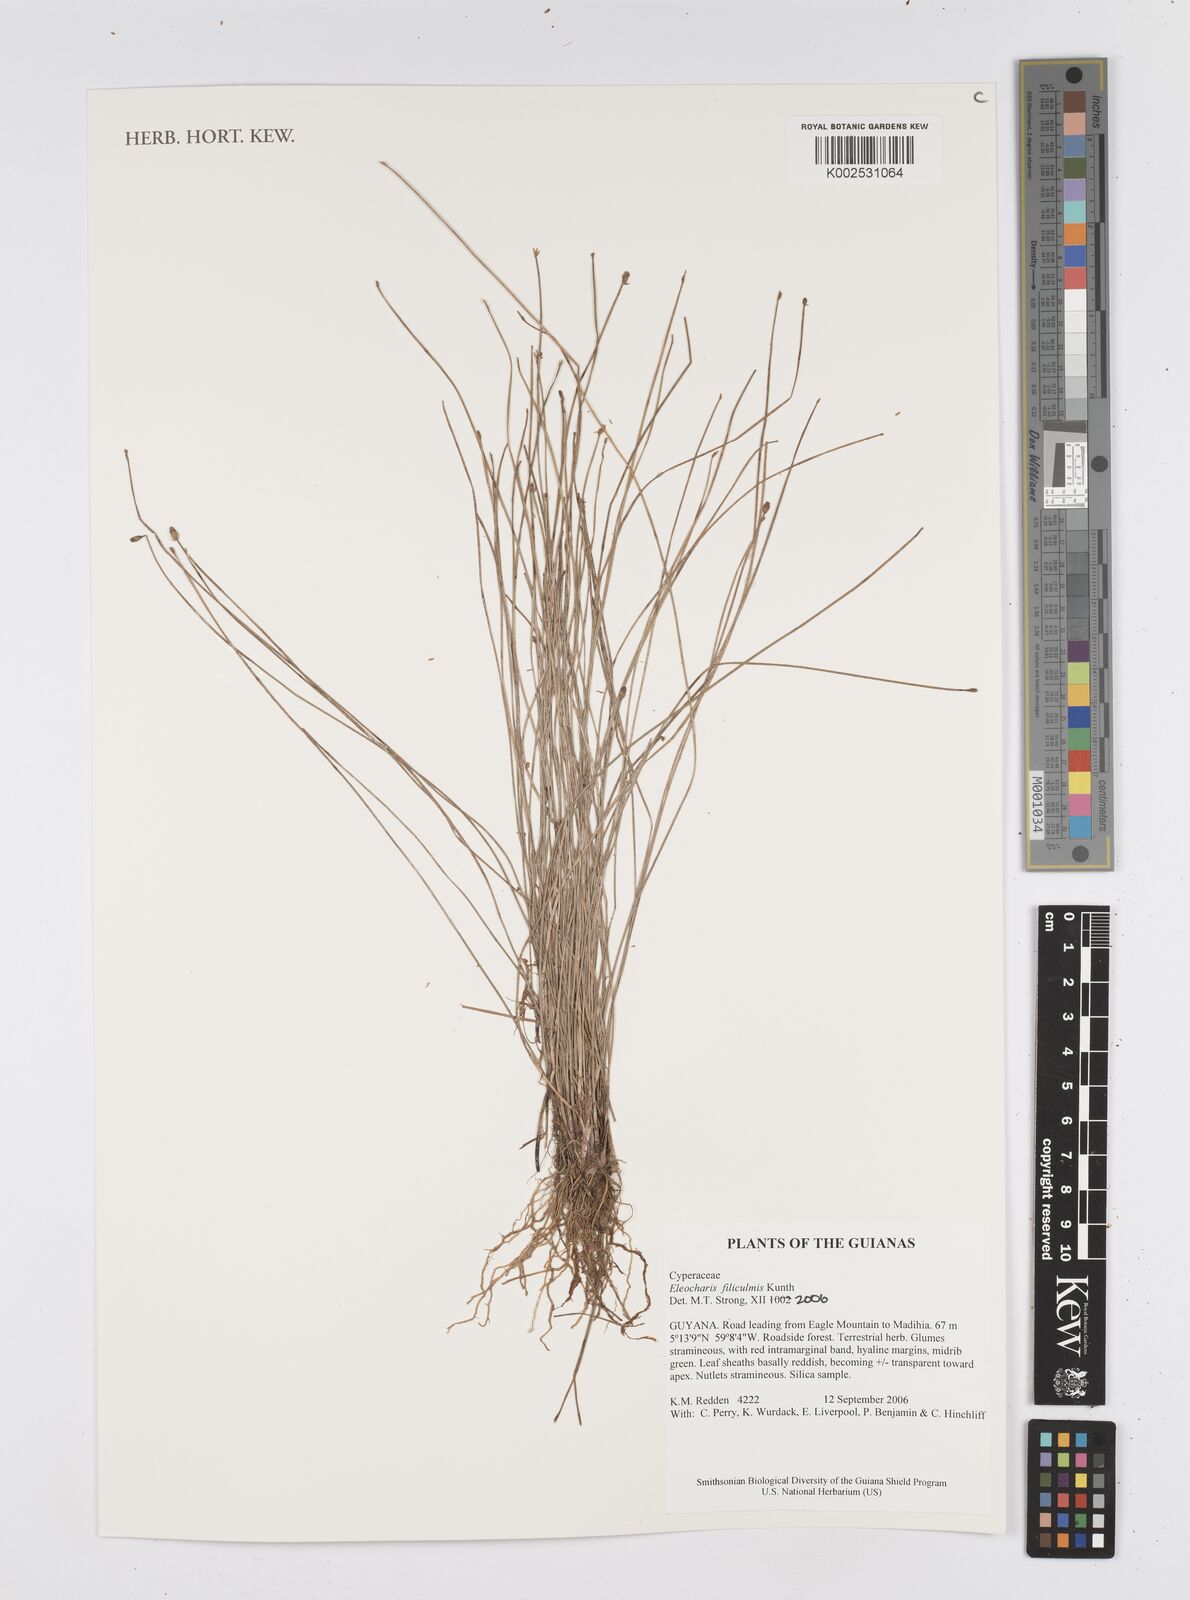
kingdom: Plantae
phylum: Tracheophyta
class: Liliopsida
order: Poales
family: Cyperaceae
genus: Eleocharis
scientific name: Eleocharis filiculmis
